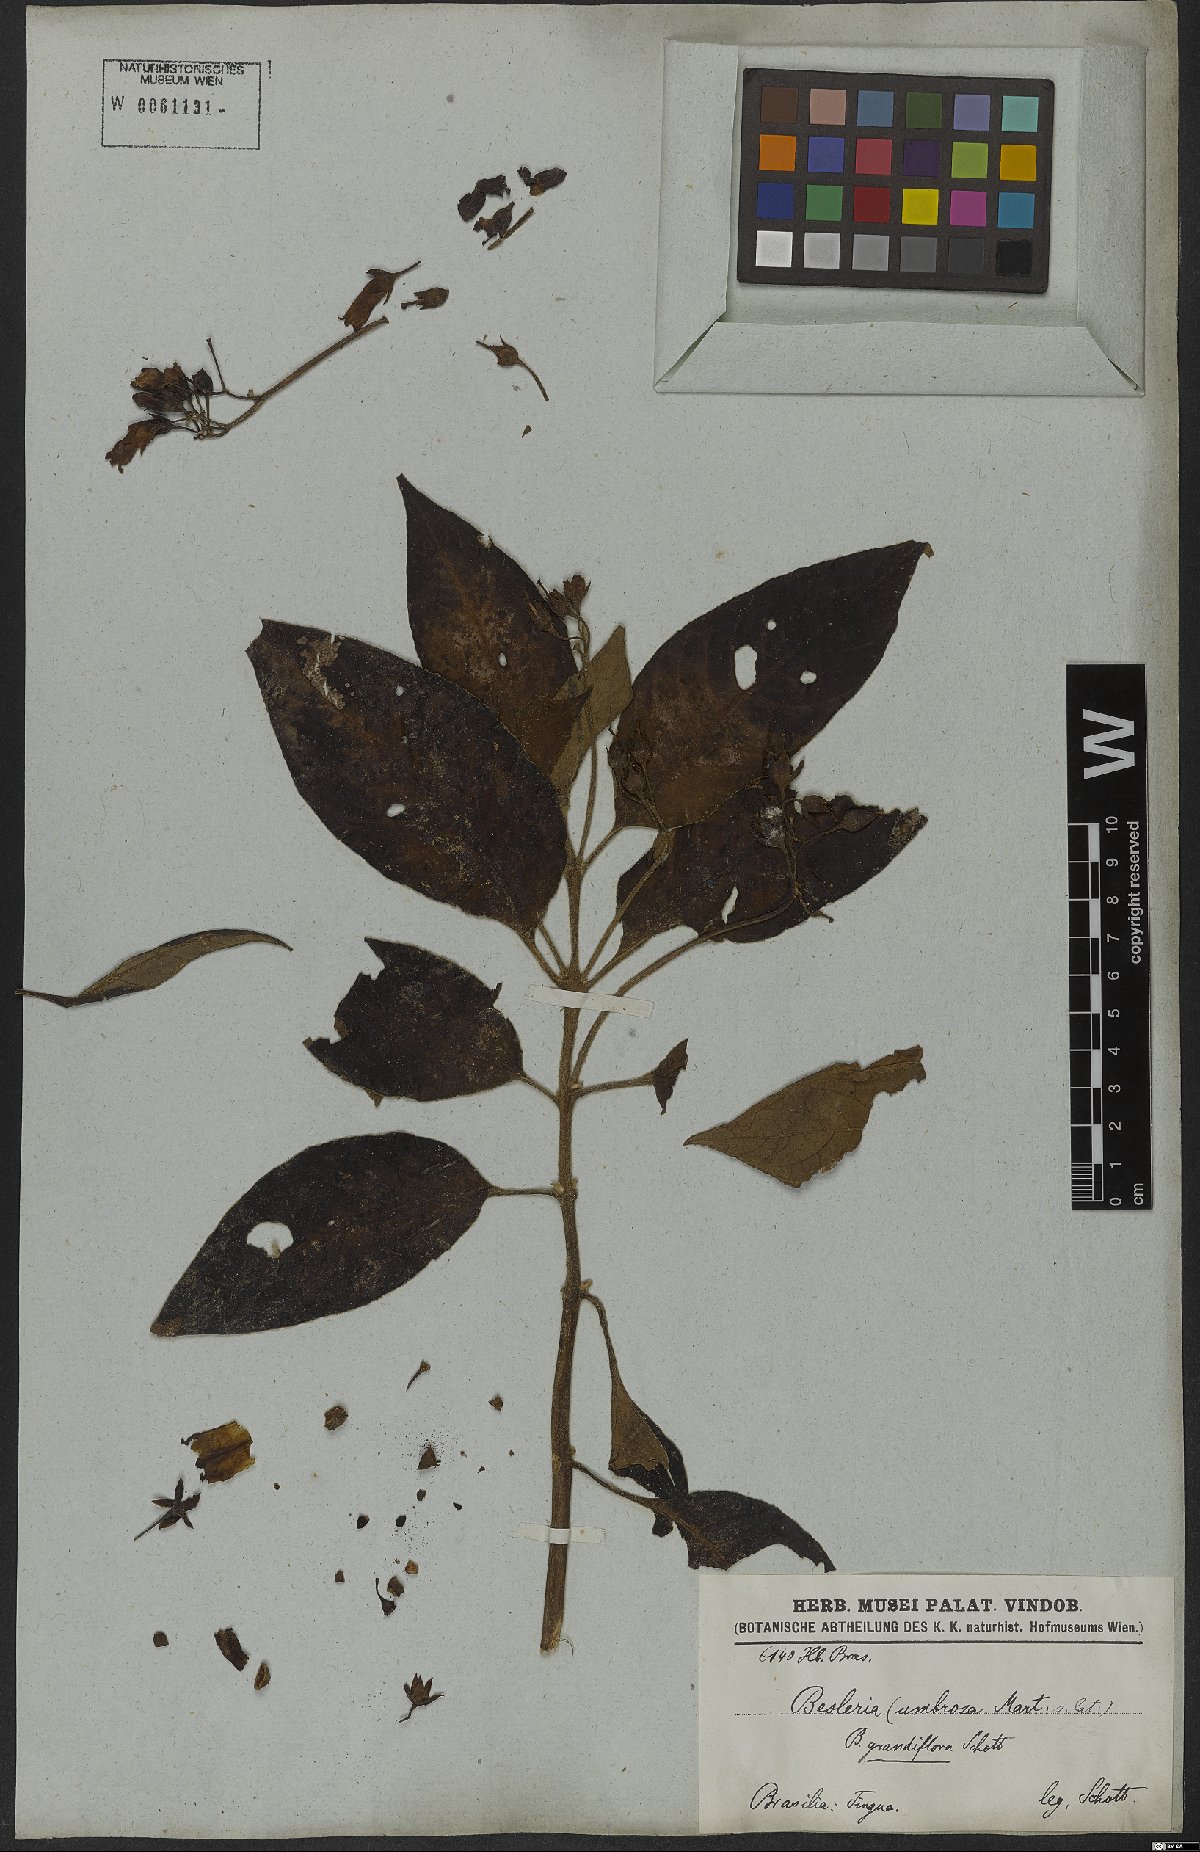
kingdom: Plantae
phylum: Tracheophyta
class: Magnoliopsida
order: Lamiales
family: Gesneriaceae
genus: Kohleria
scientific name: Kohleria tigridia
